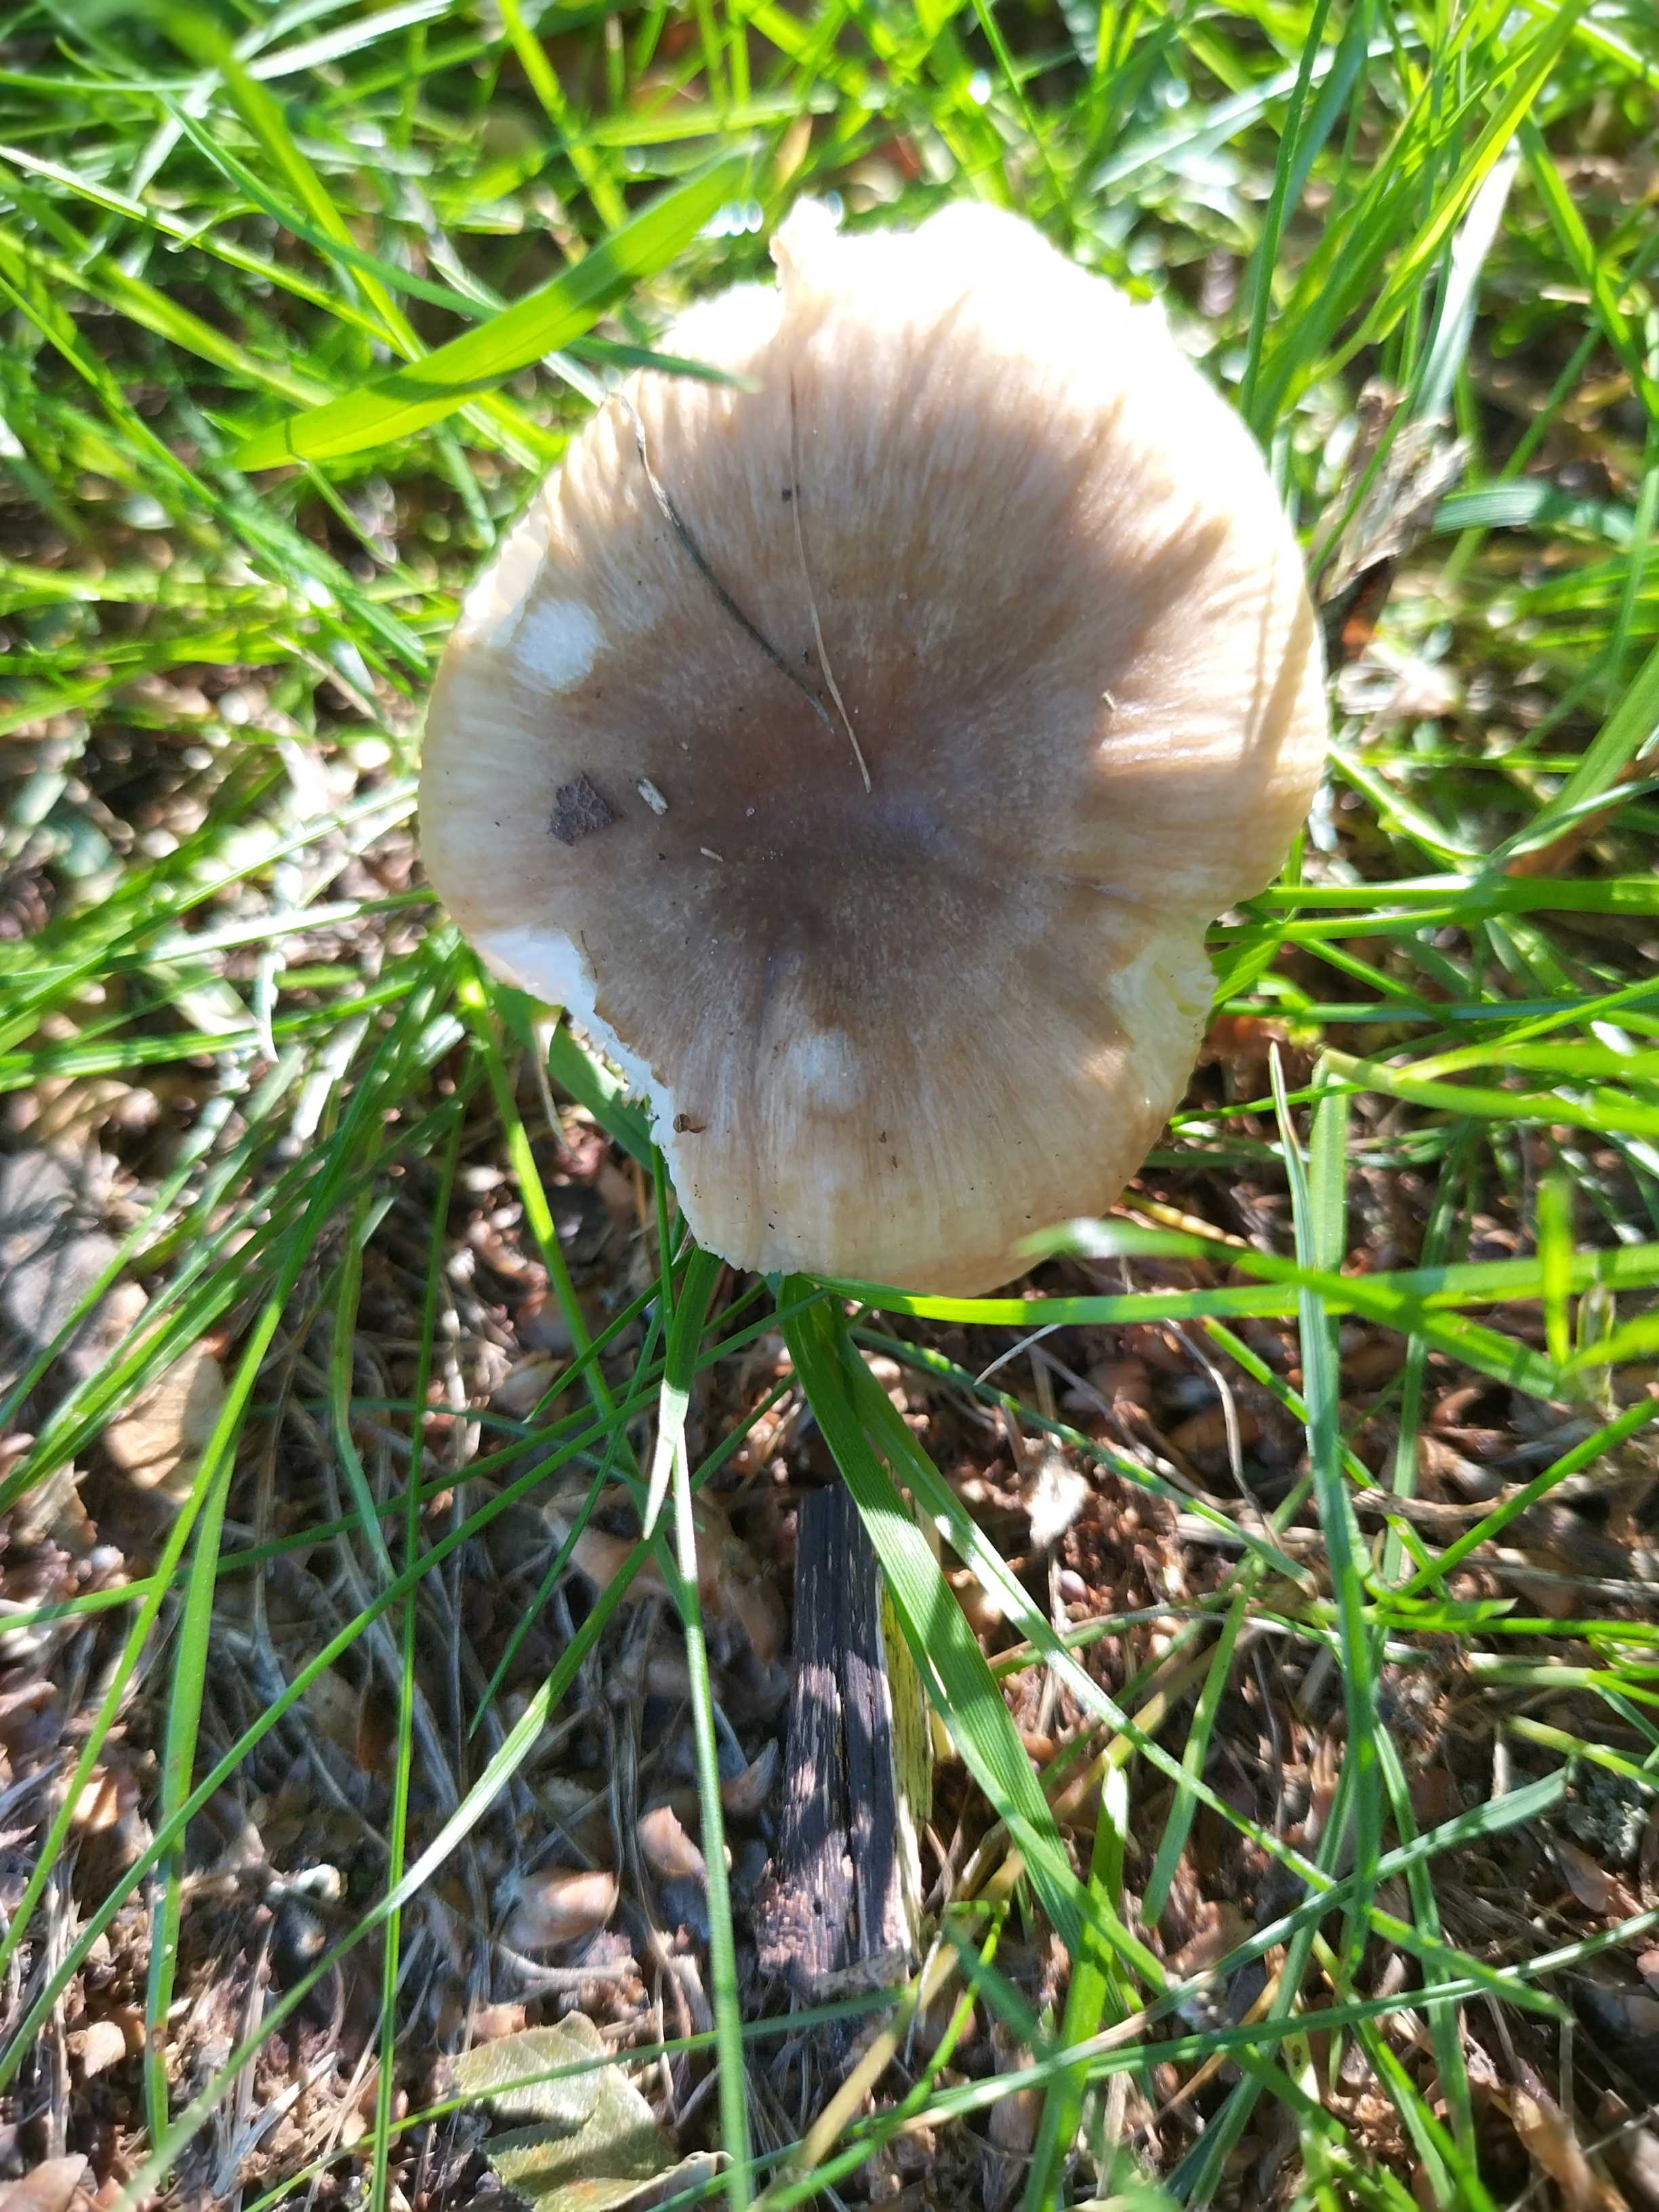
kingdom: Fungi
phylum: Basidiomycota
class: Agaricomycetes
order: Russulales
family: Russulaceae
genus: Russula
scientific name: Russula recondita
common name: mild kam-skørhat
